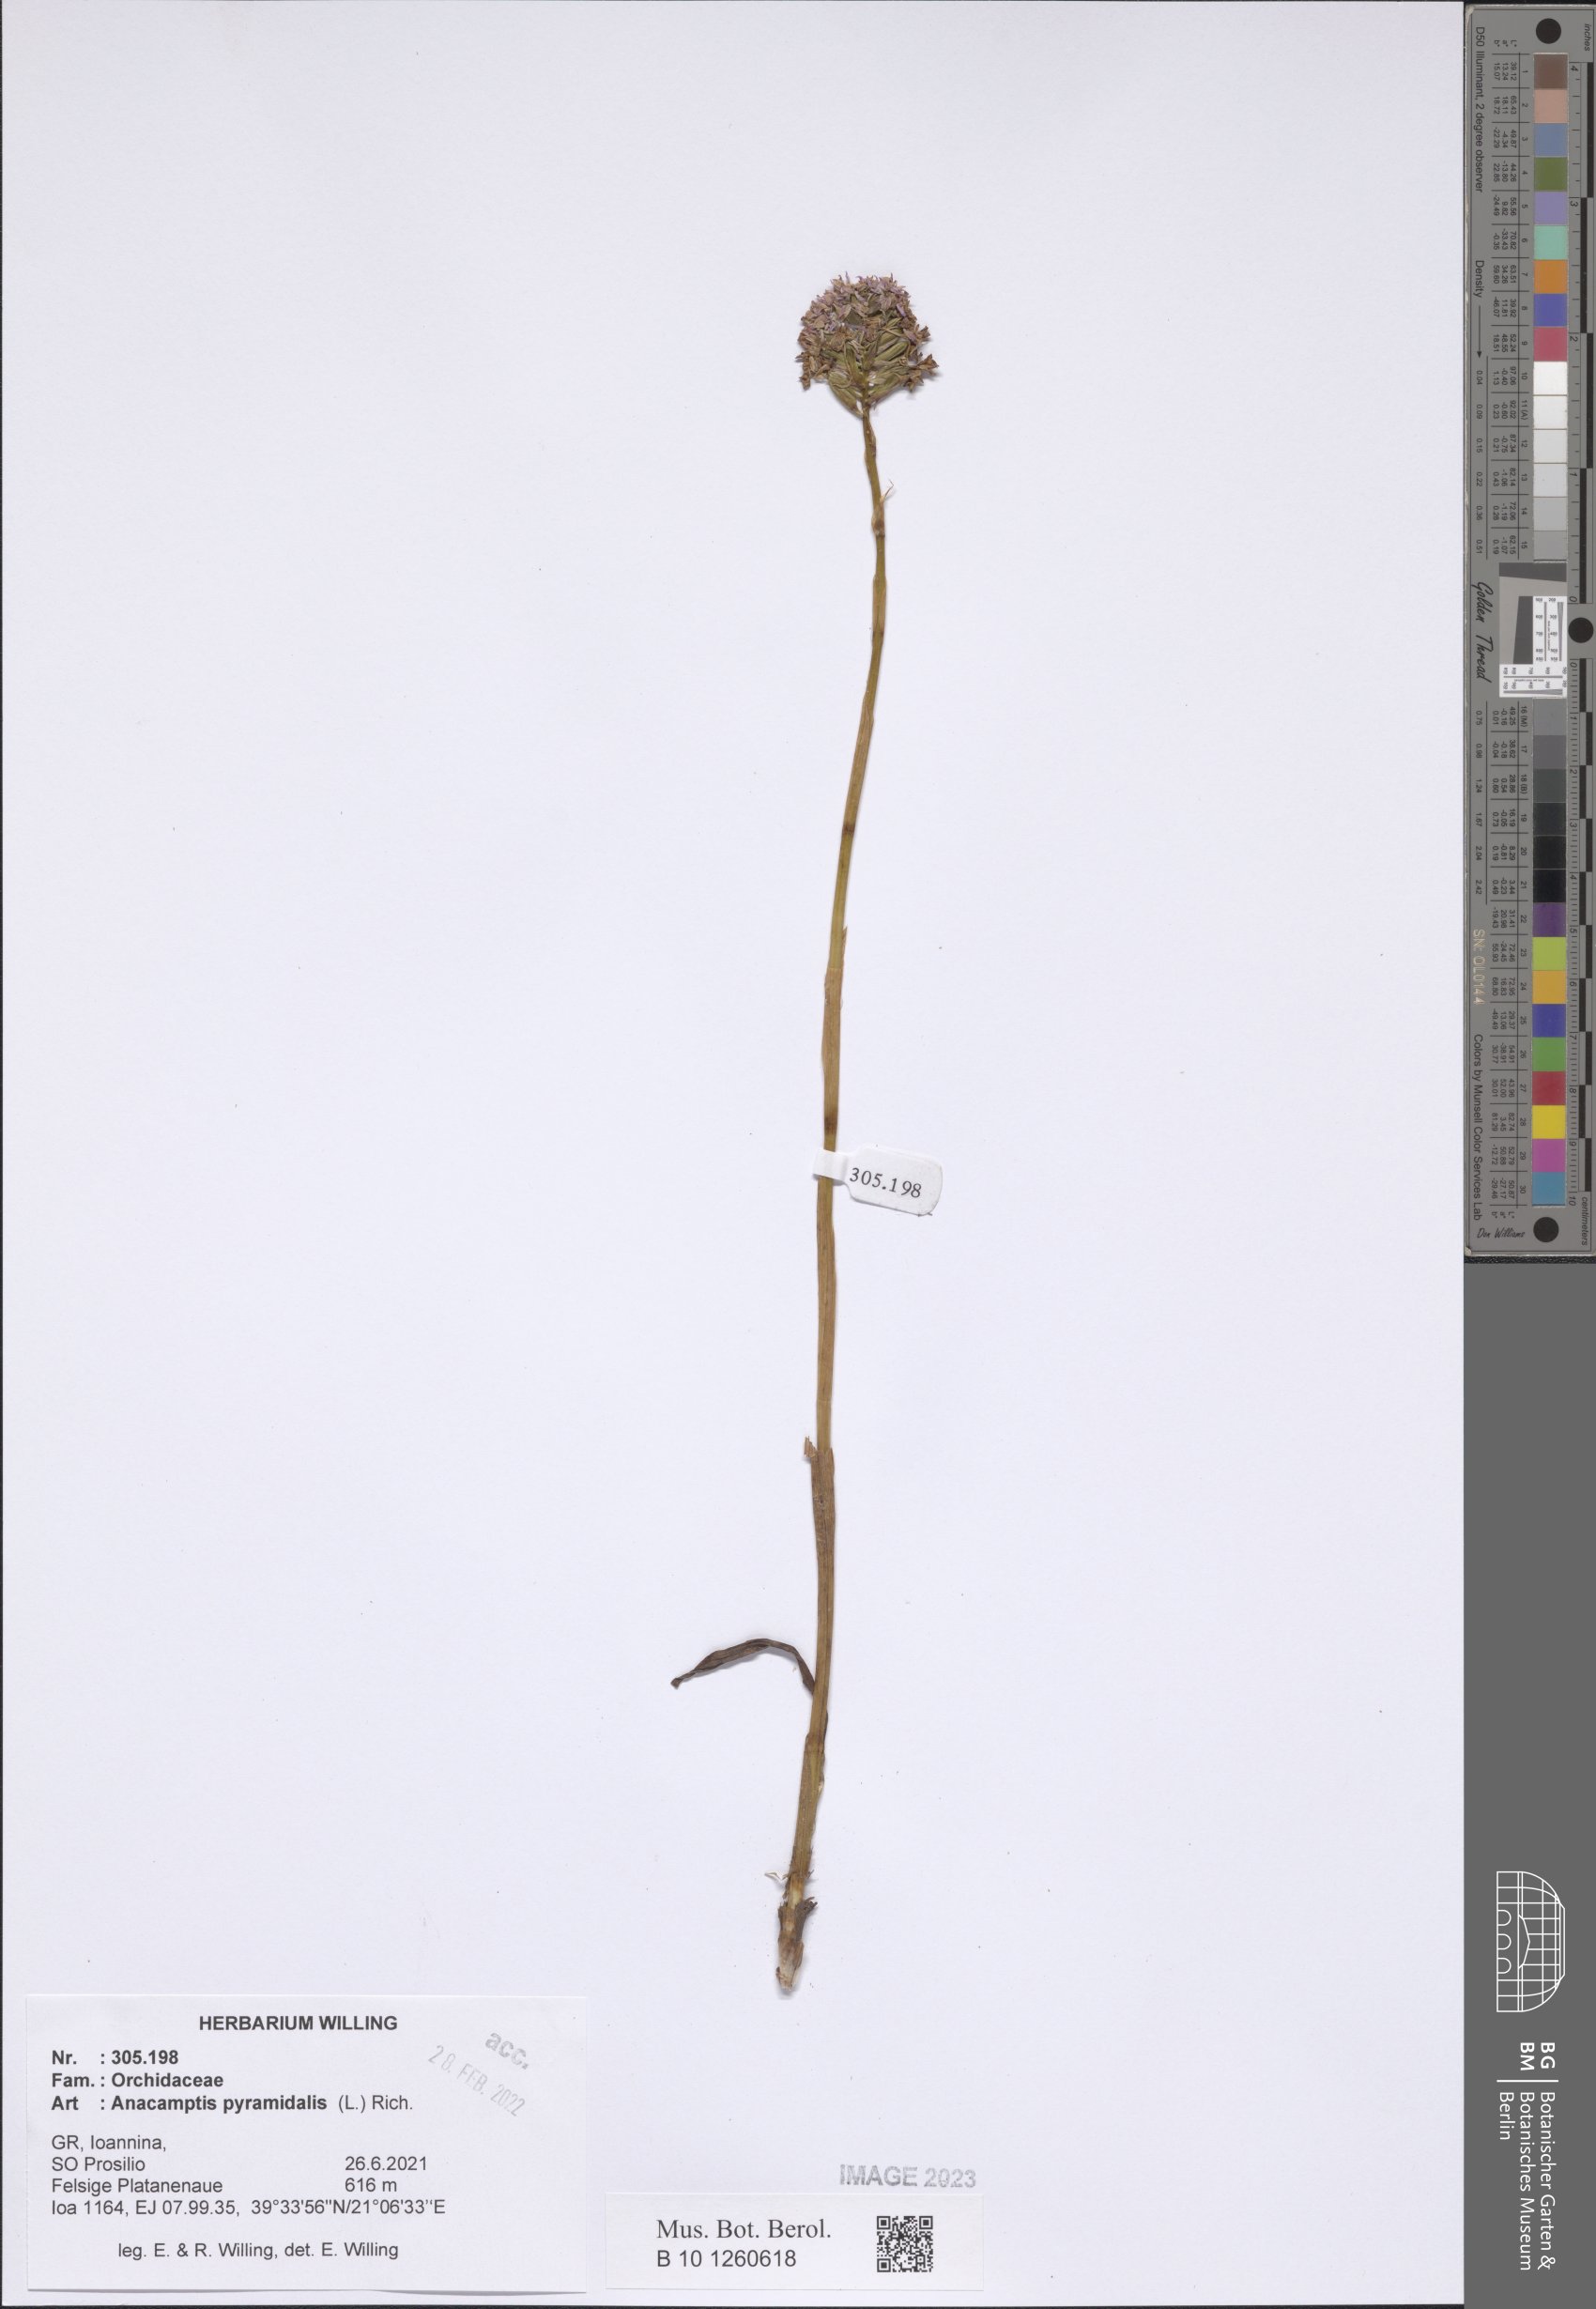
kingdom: Plantae
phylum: Tracheophyta
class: Liliopsida
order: Asparagales
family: Orchidaceae
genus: Anacamptis
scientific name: Anacamptis pyramidalis
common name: Pyramidal orchid
